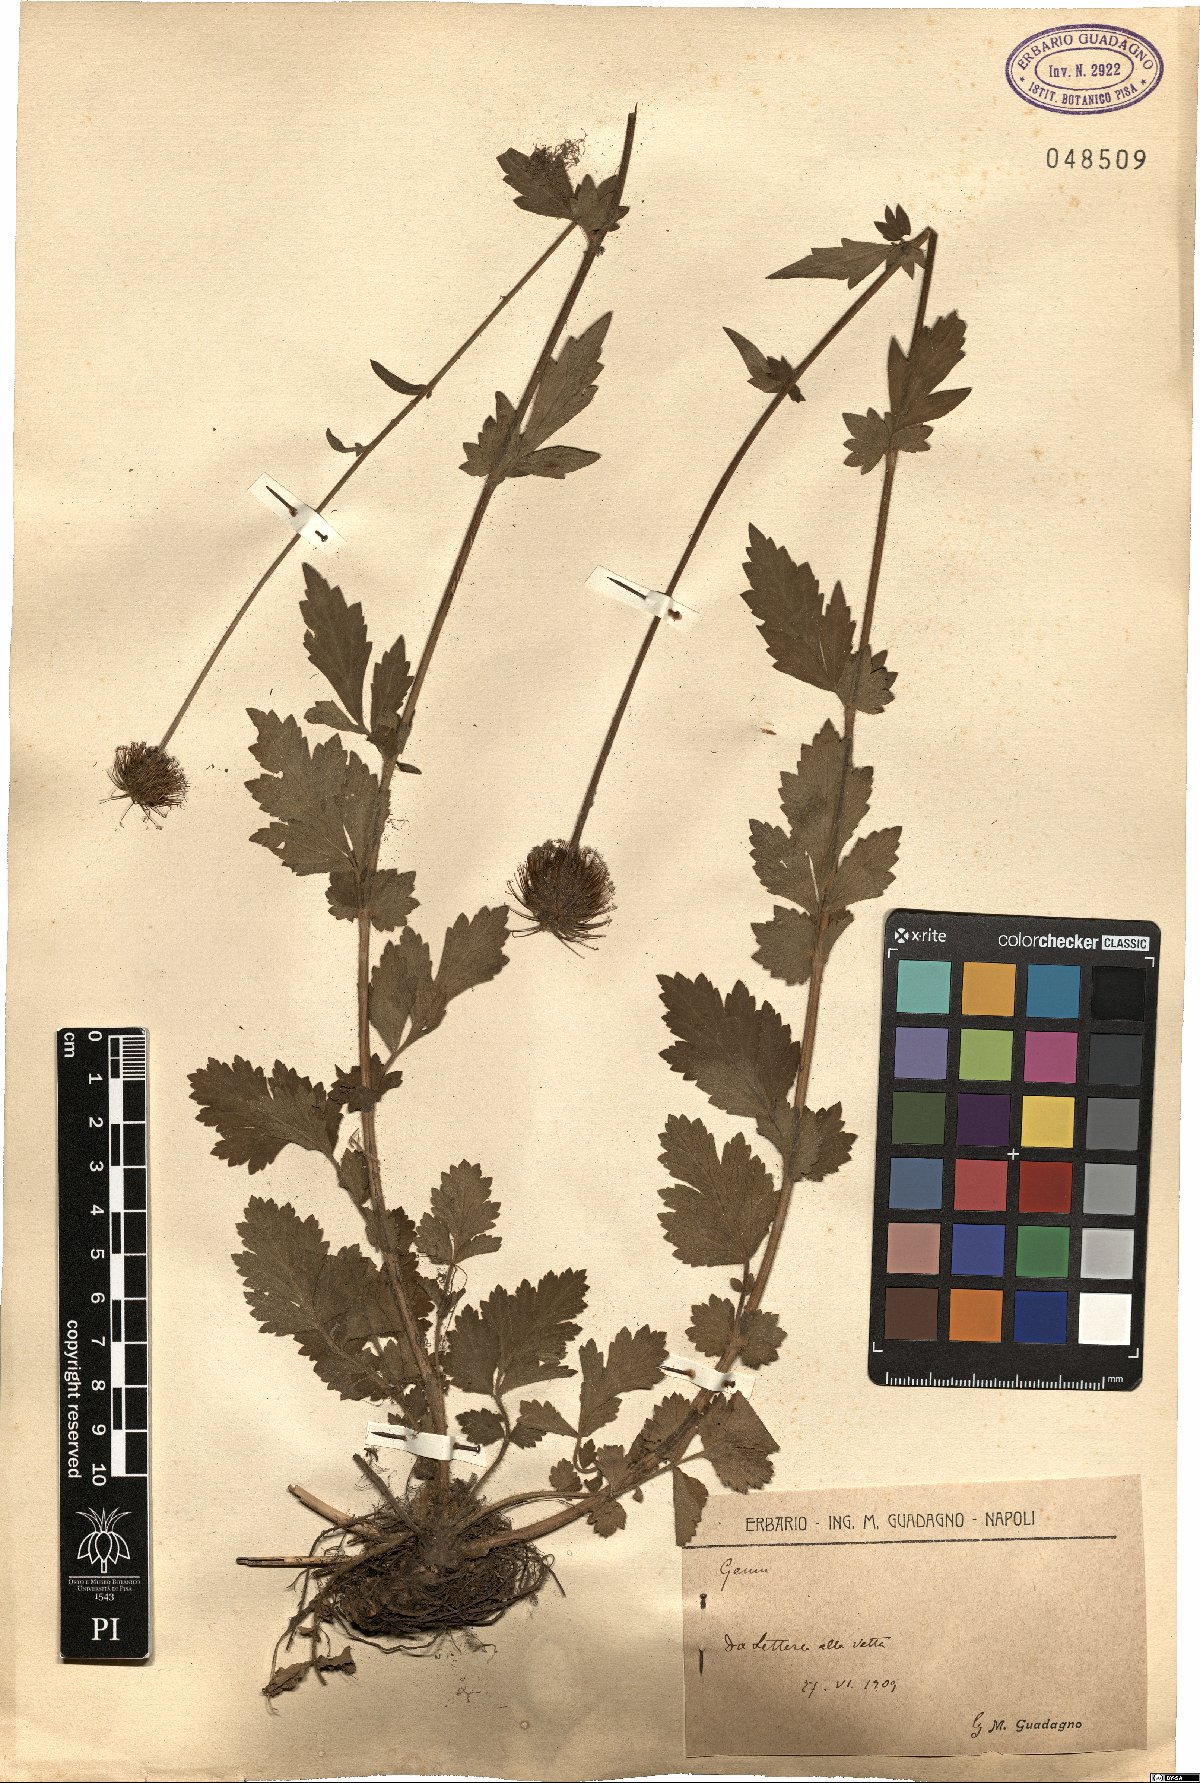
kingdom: Plantae
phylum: Tracheophyta
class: Magnoliopsida
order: Rosales
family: Rosaceae
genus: Geum
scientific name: Geum
